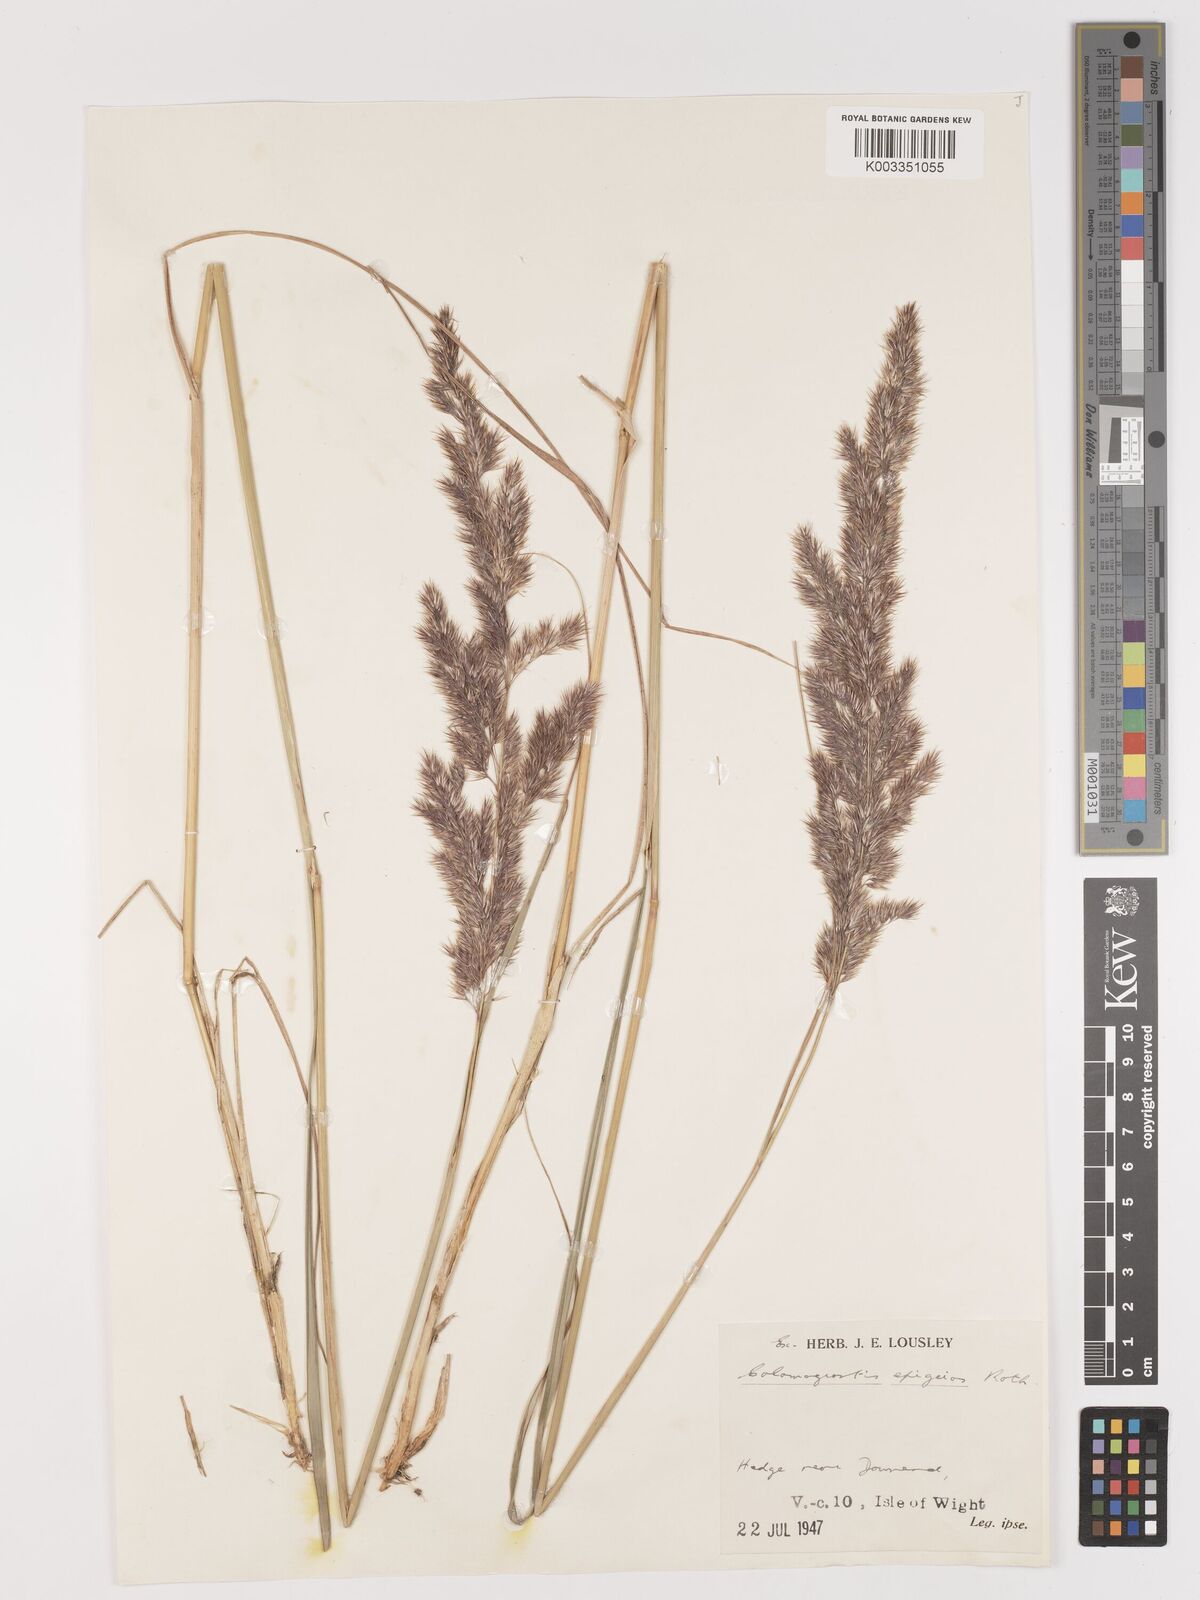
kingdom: Plantae
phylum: Tracheophyta
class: Liliopsida
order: Poales
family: Poaceae
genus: Calamagrostis
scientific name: Calamagrostis epigejos
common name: Wood small-reed
